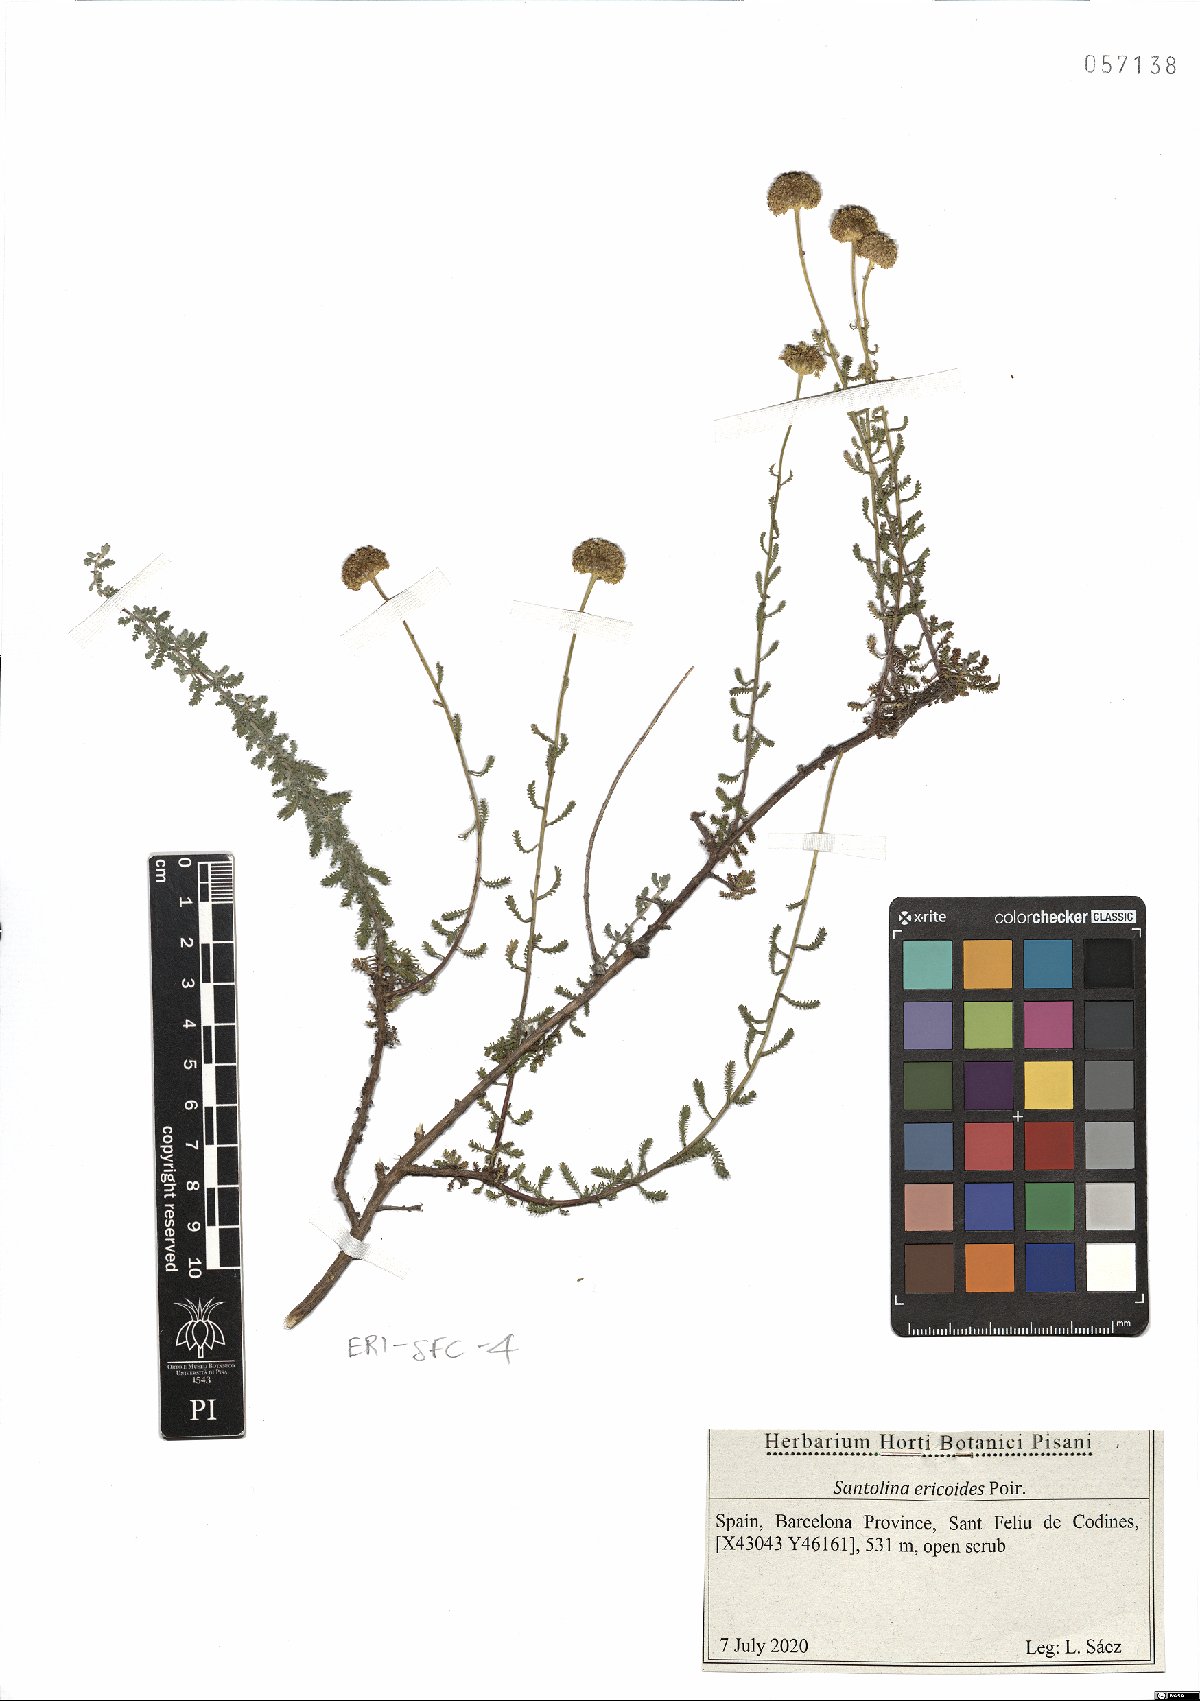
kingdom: Plantae
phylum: Tracheophyta
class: Magnoliopsida
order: Asterales
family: Asteraceae
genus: Santolina
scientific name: Santolina ericoides
